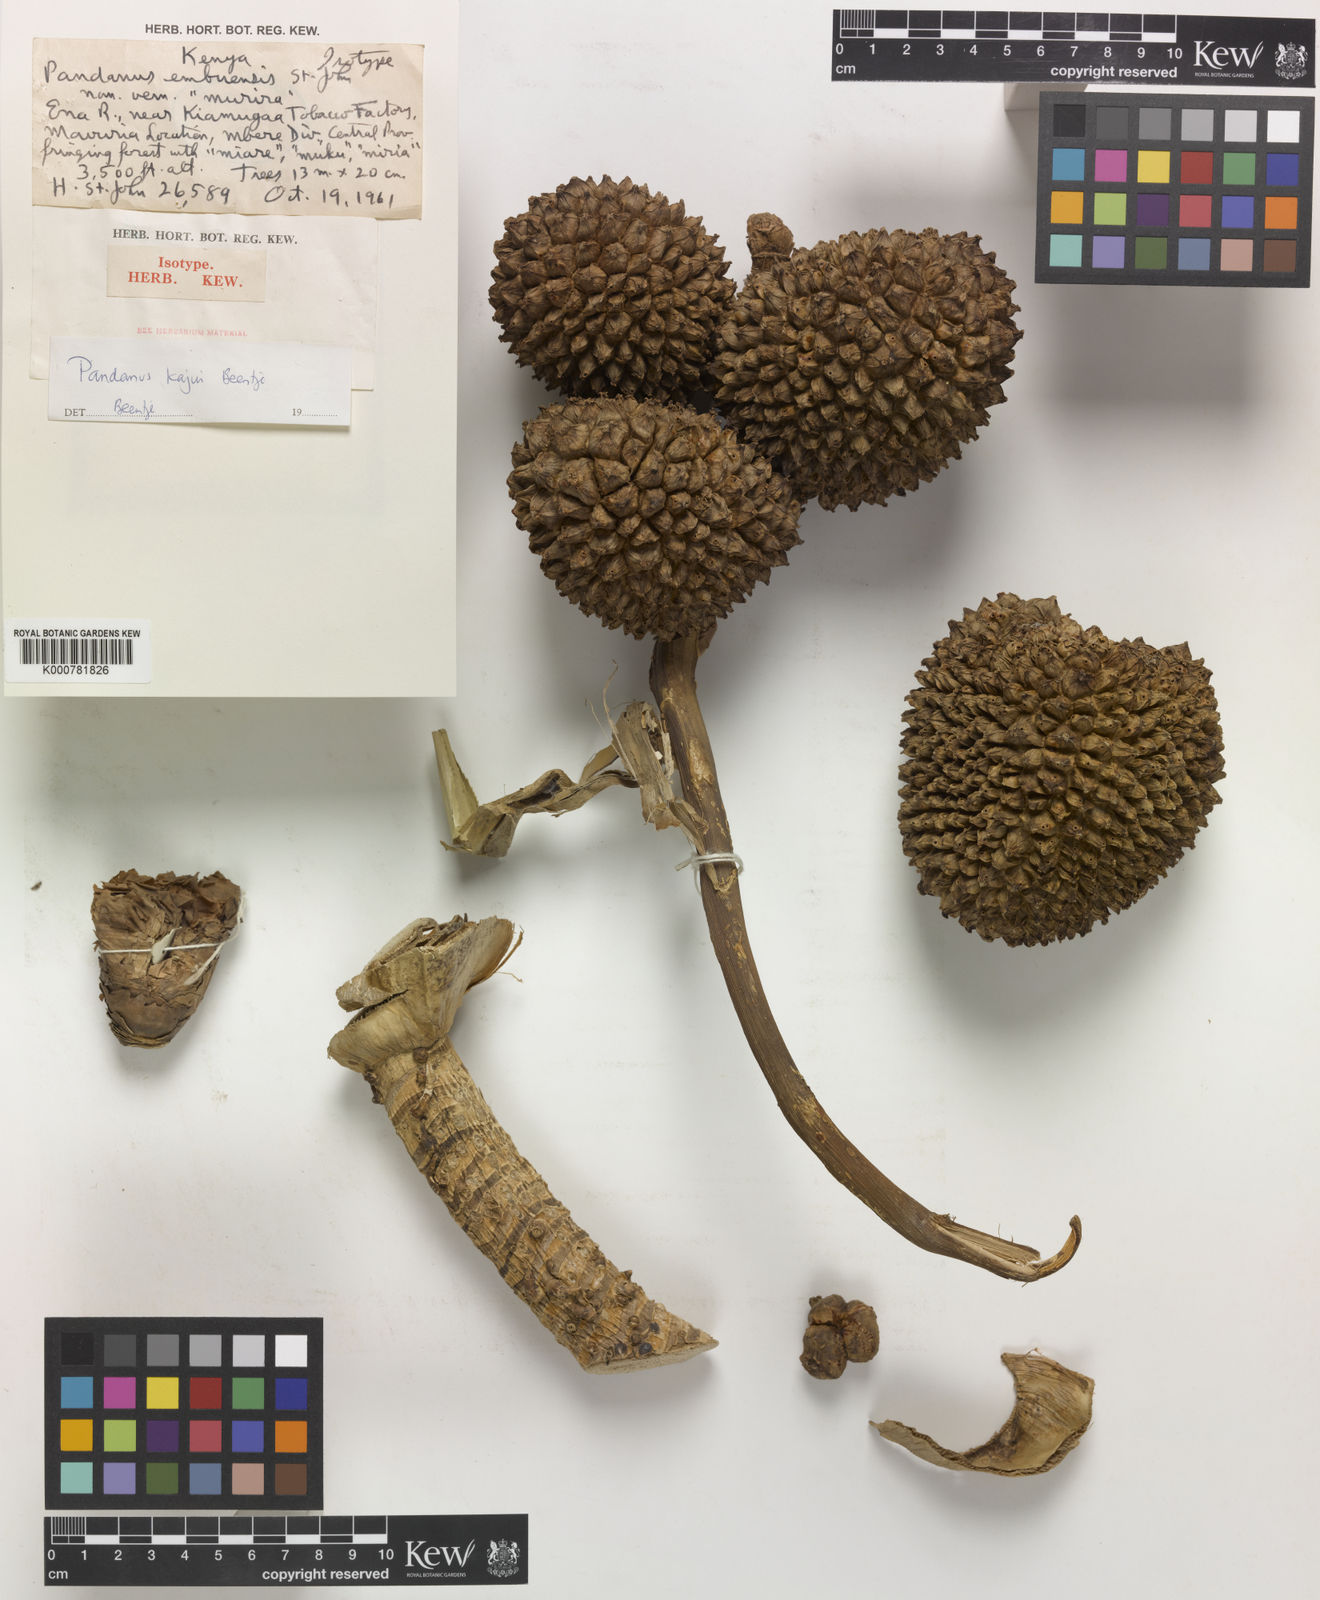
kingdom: Plantae
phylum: Tracheophyta
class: Liliopsida
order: Pandanales
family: Pandanaceae
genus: Pandanus
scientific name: Pandanus
